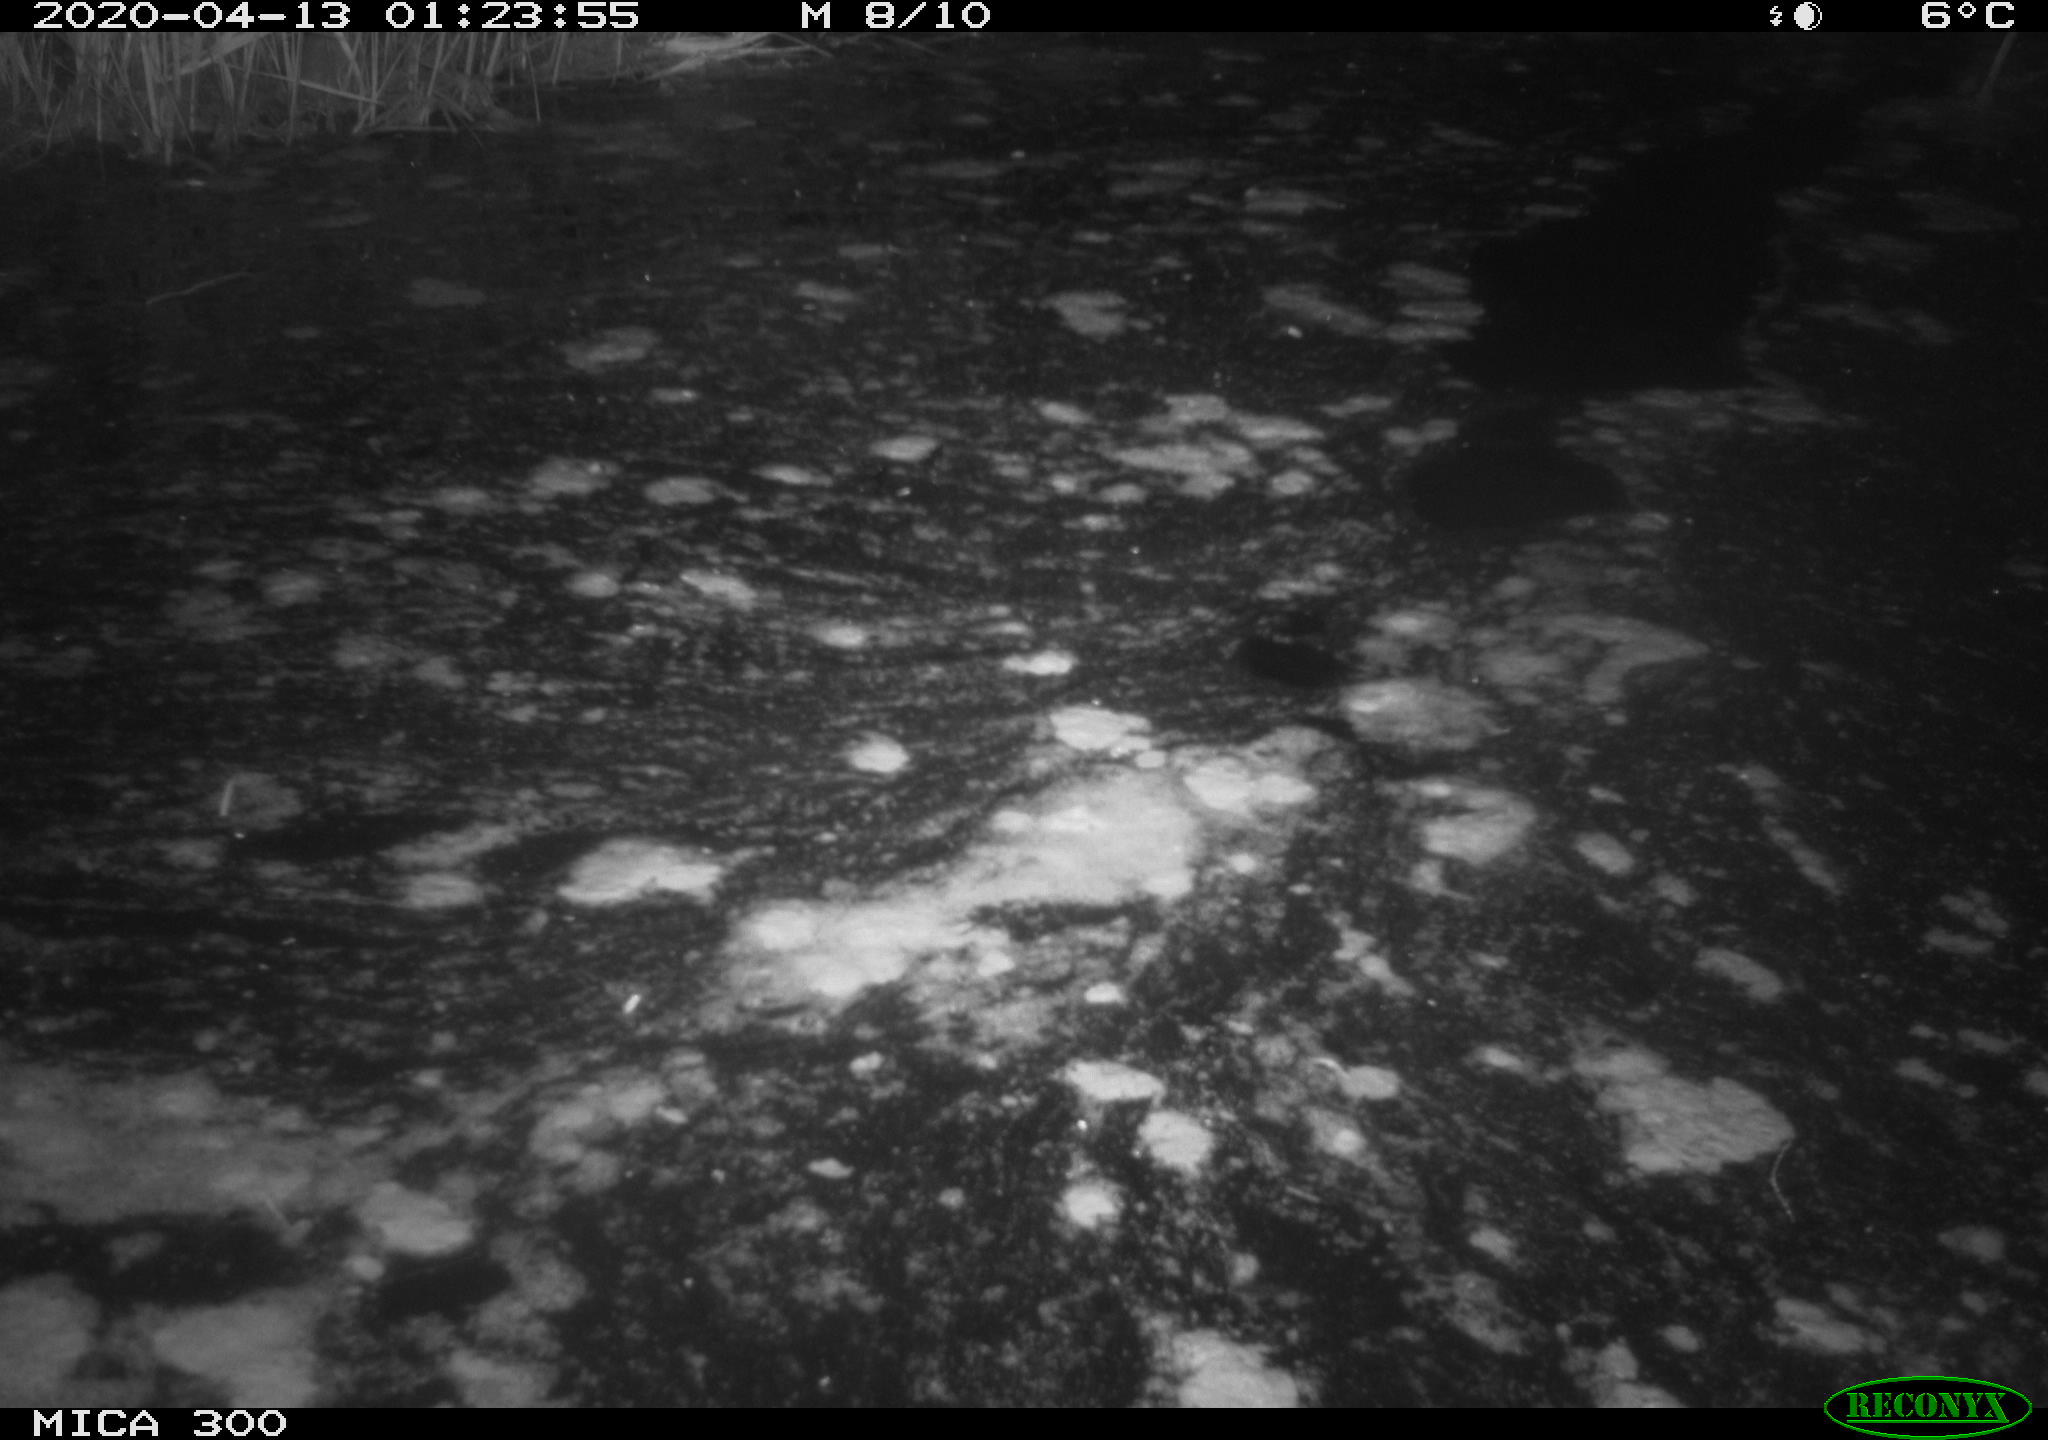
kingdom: Animalia
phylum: Chordata
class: Mammalia
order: Rodentia
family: Castoridae
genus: Castor
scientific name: Castor fiber
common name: Eurasian beaver
